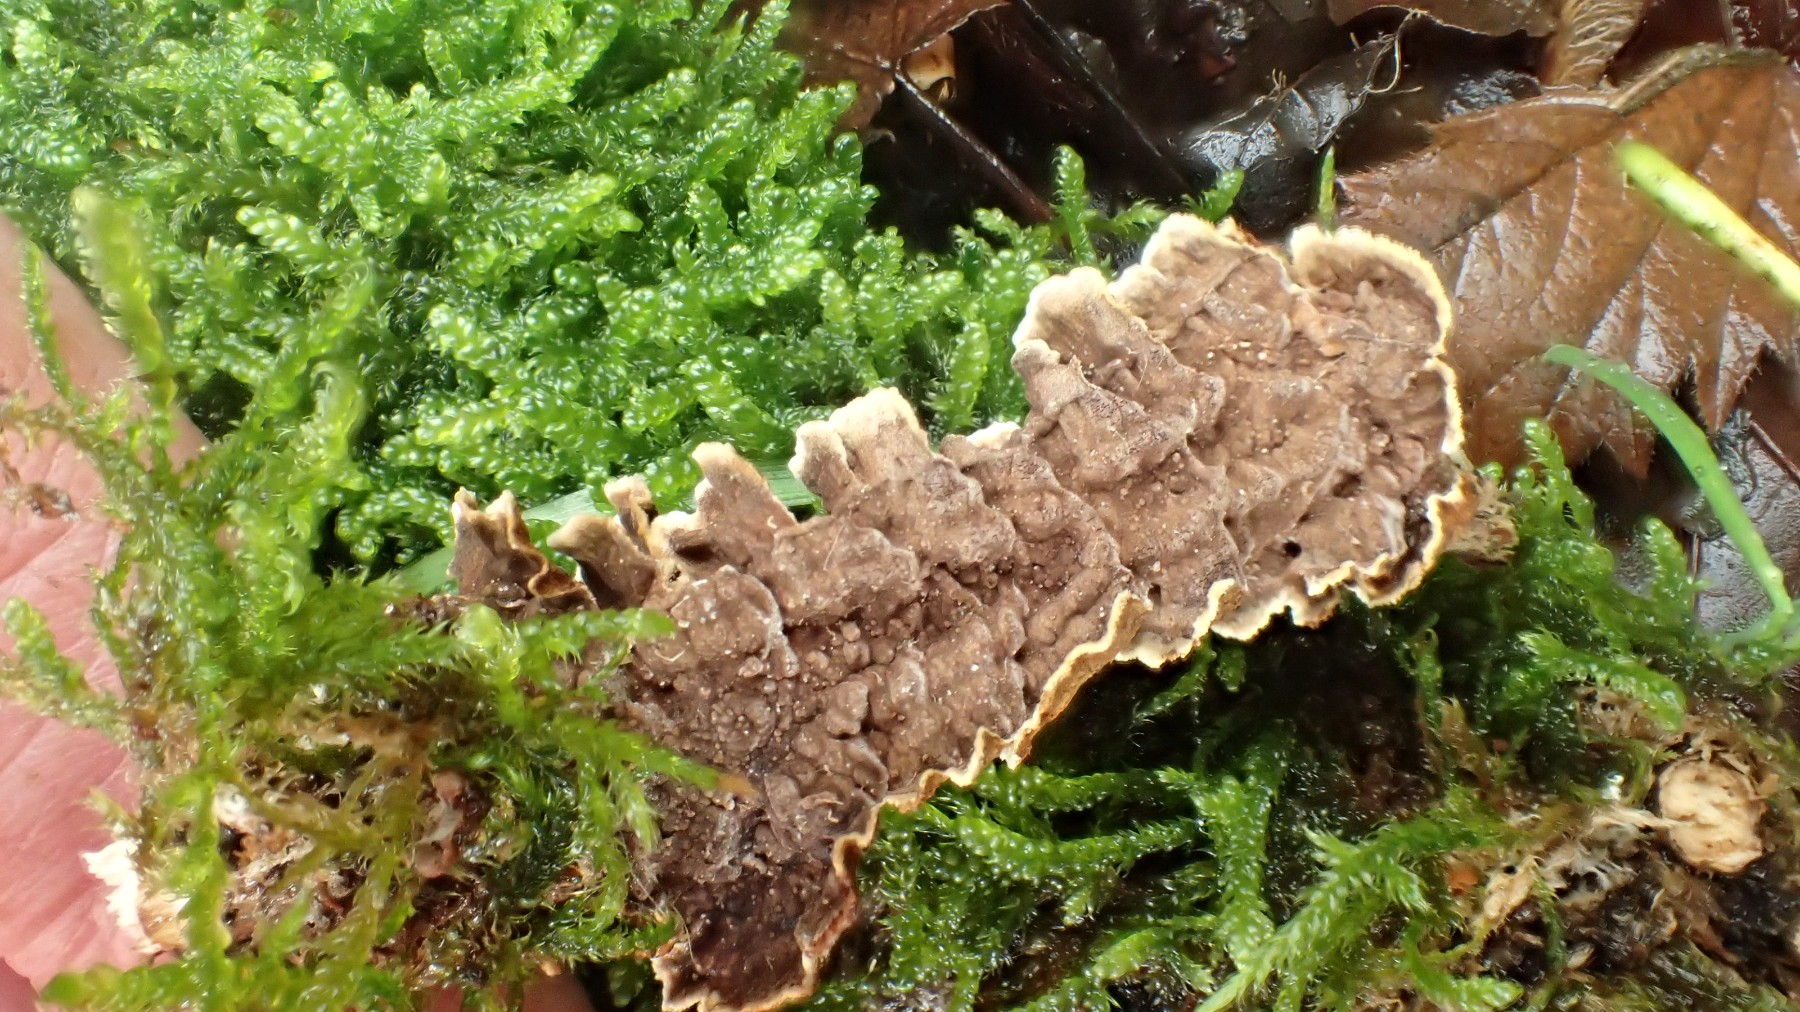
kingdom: Fungi
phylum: Basidiomycota
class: Agaricomycetes
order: Hymenochaetales
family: Hymenochaetaceae
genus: Hydnoporia
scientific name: Hydnoporia tabacina
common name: tobaksbrun ruslædersvamp
